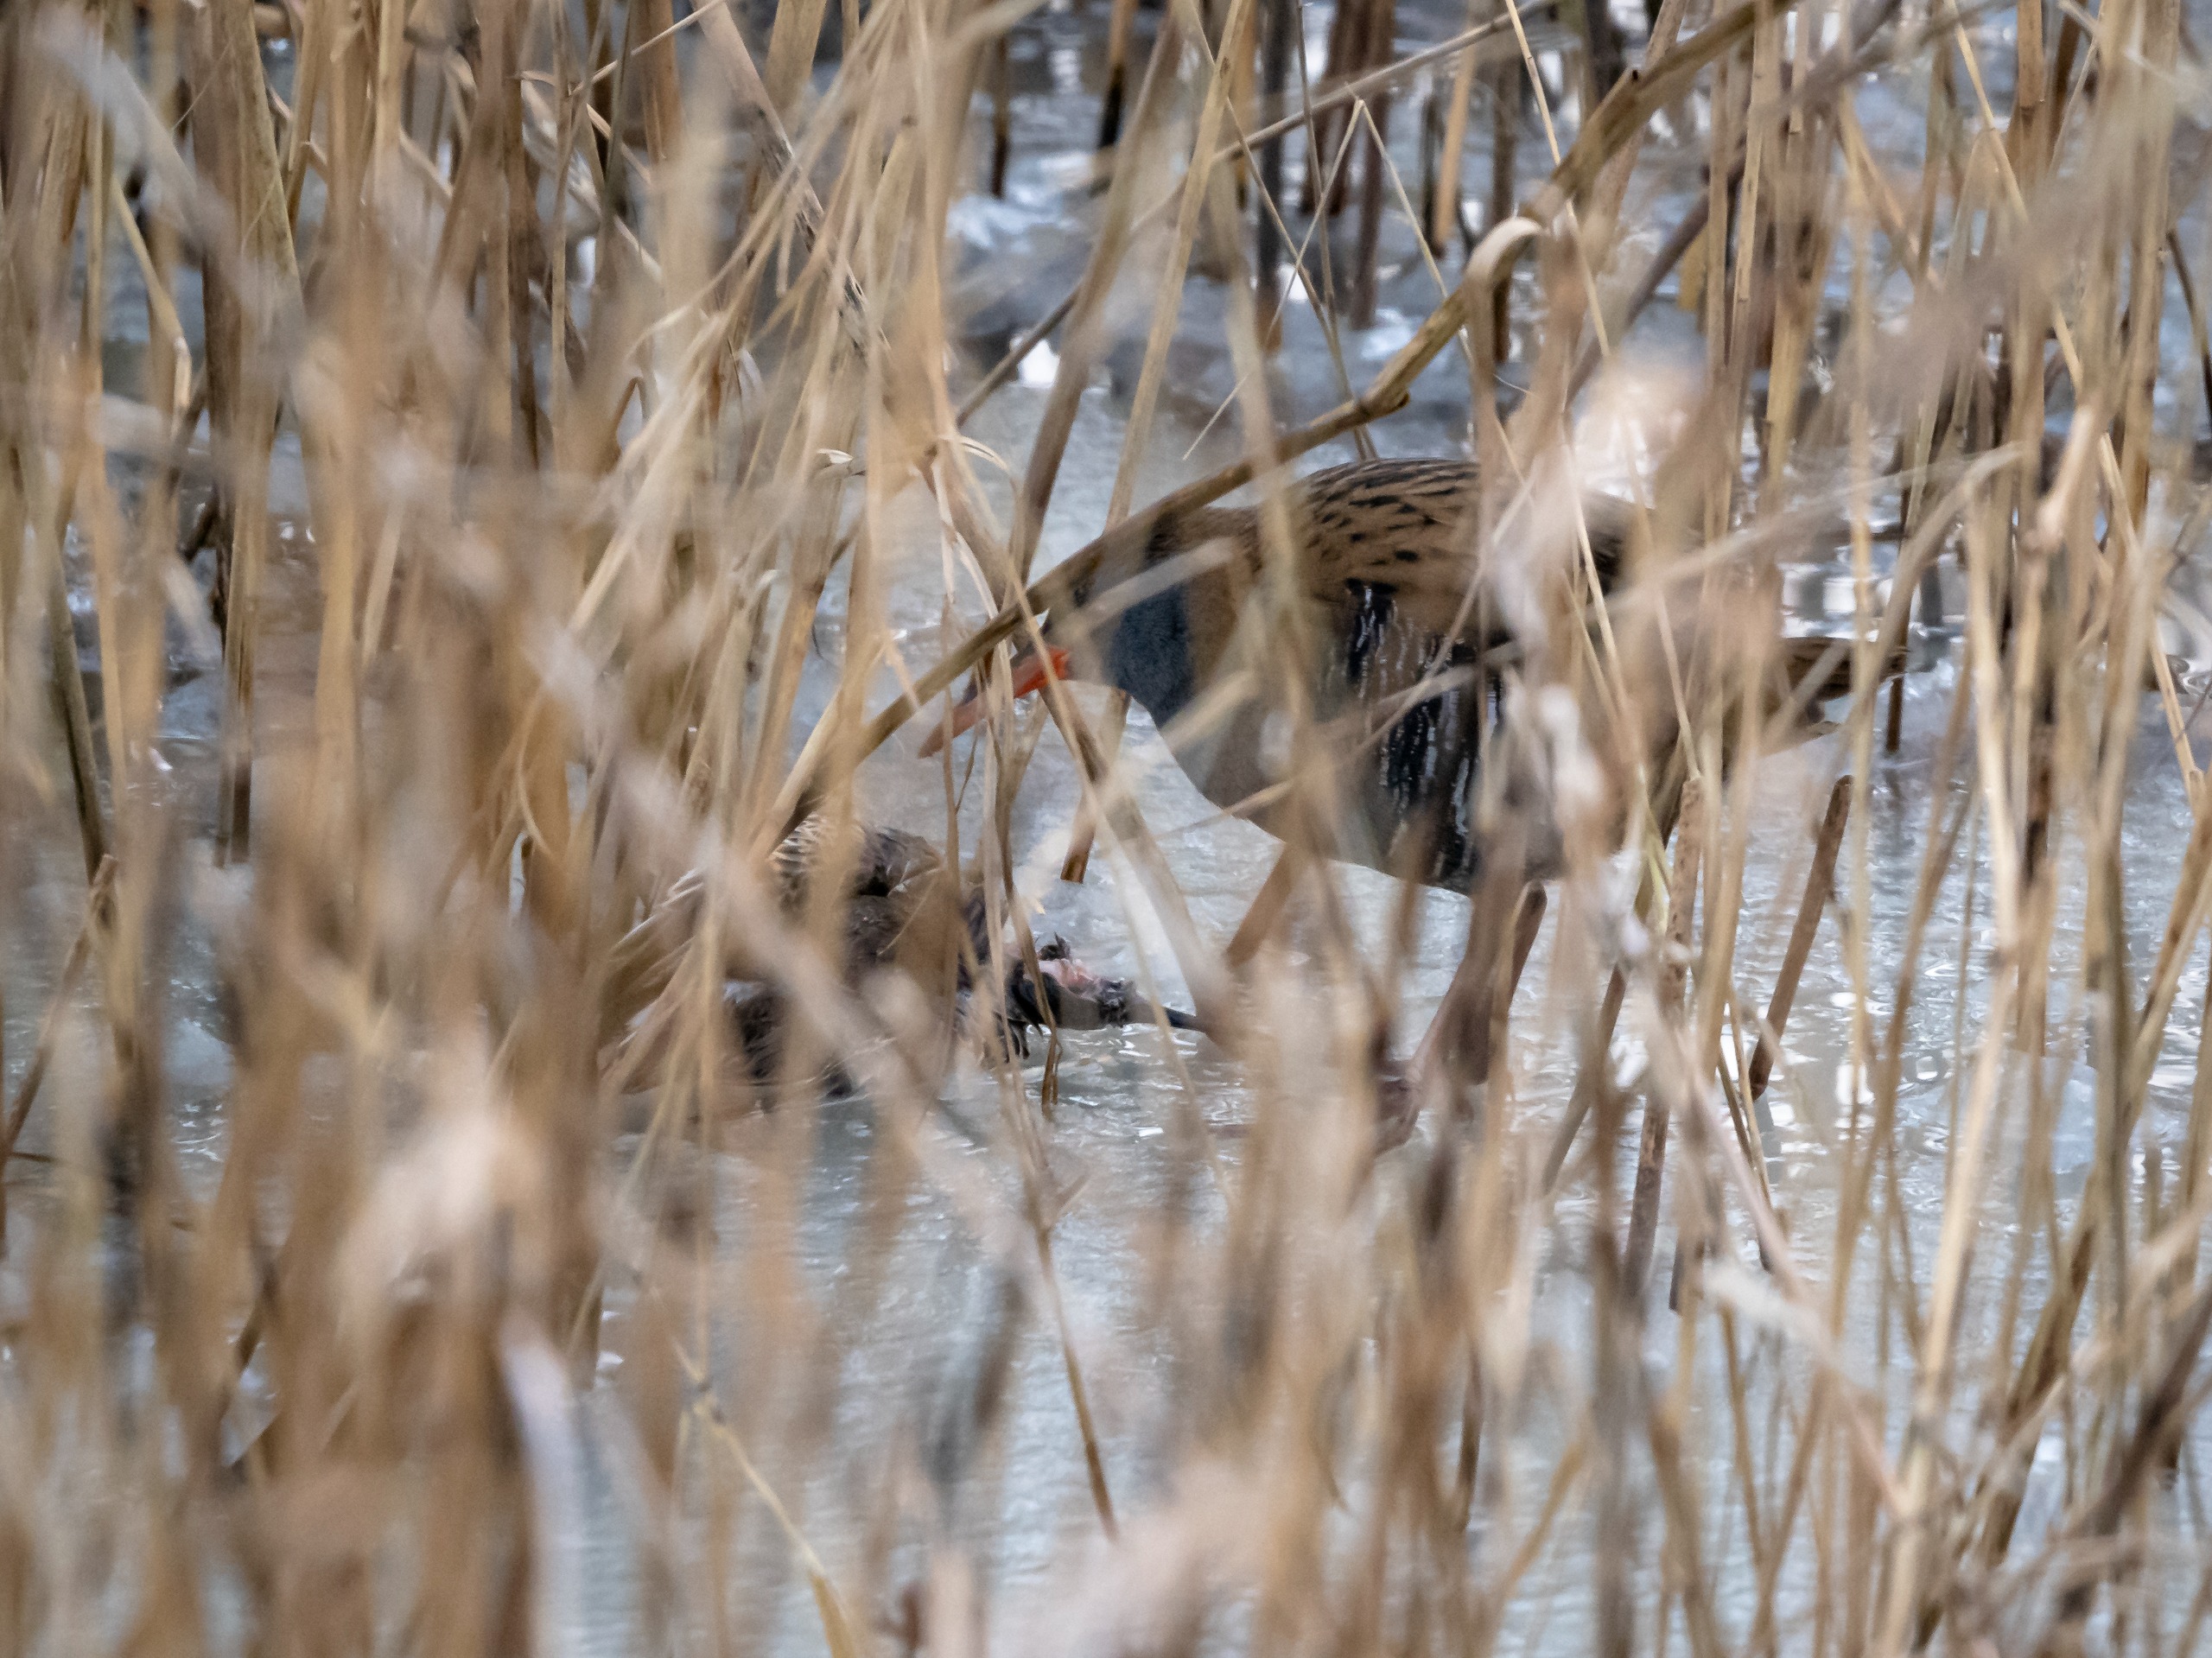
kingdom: Animalia
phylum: Chordata
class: Aves
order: Gruiformes
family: Rallidae
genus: Rallus
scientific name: Rallus aquaticus
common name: Vandrikse
